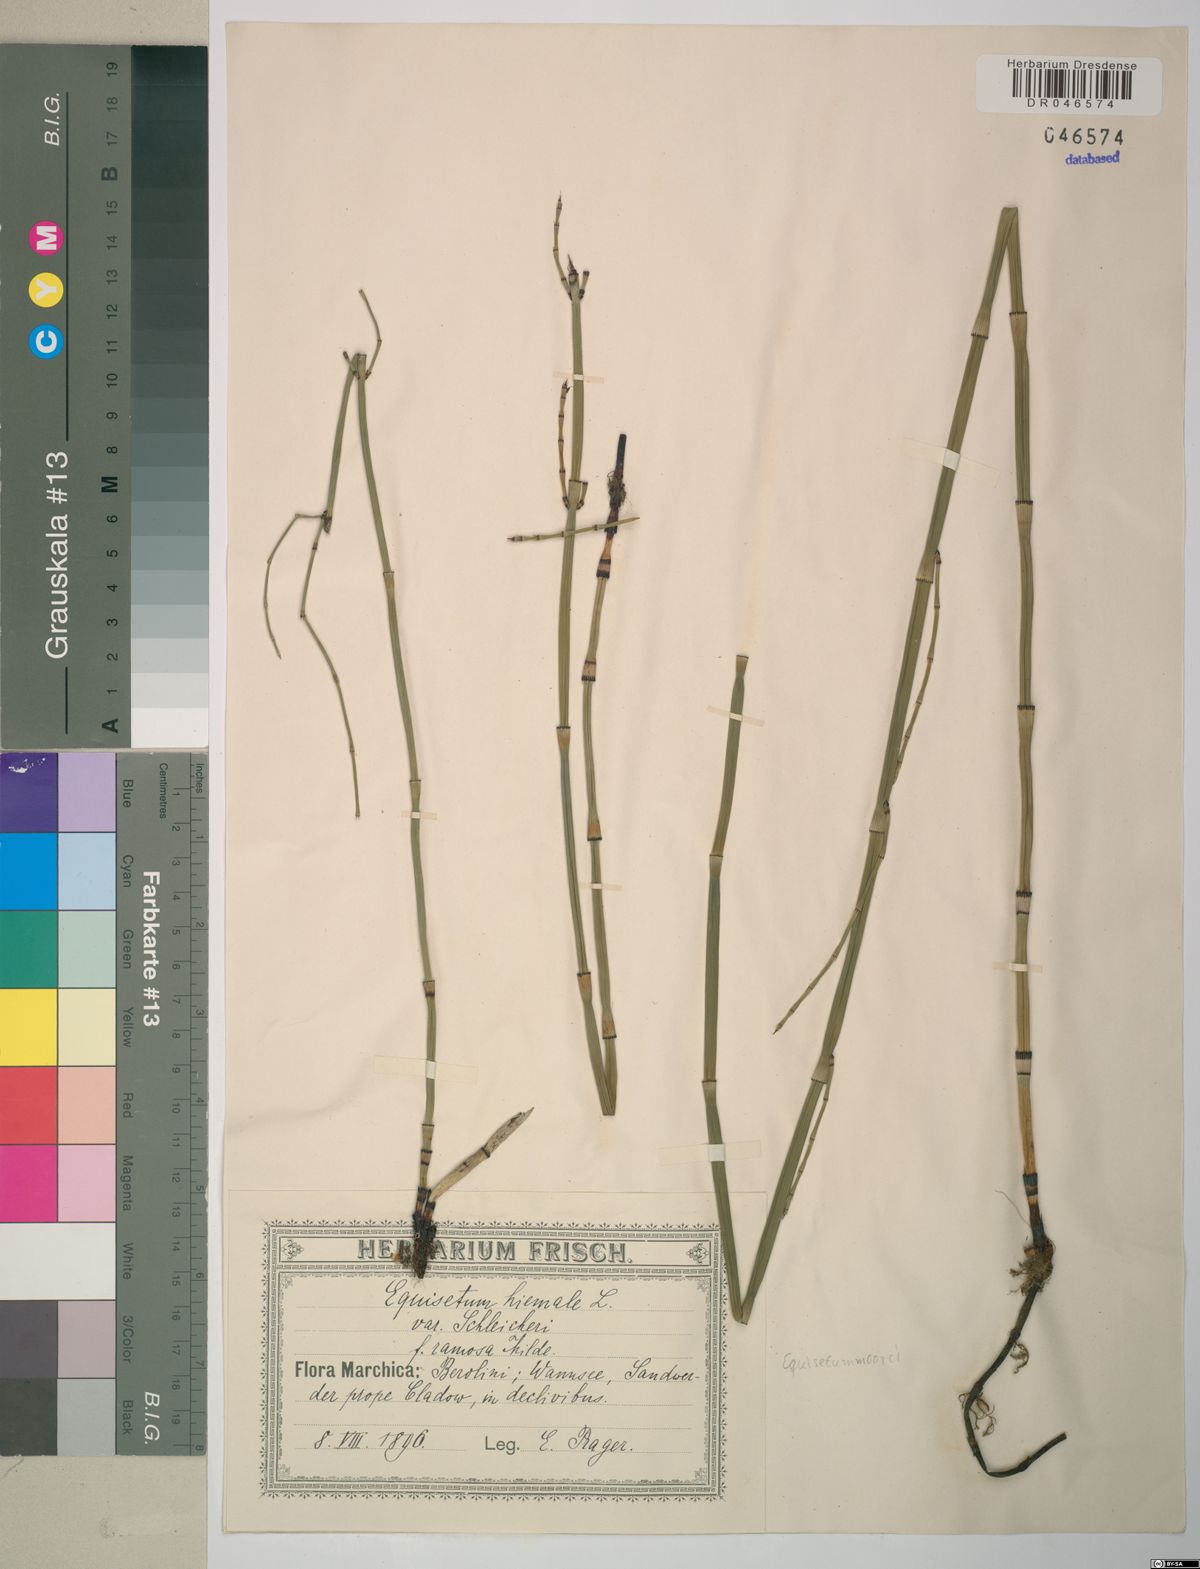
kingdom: Plantae
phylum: Tracheophyta
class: Polypodiopsida
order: Equisetales
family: Equisetaceae
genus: Equisetum
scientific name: Equisetum moorei
